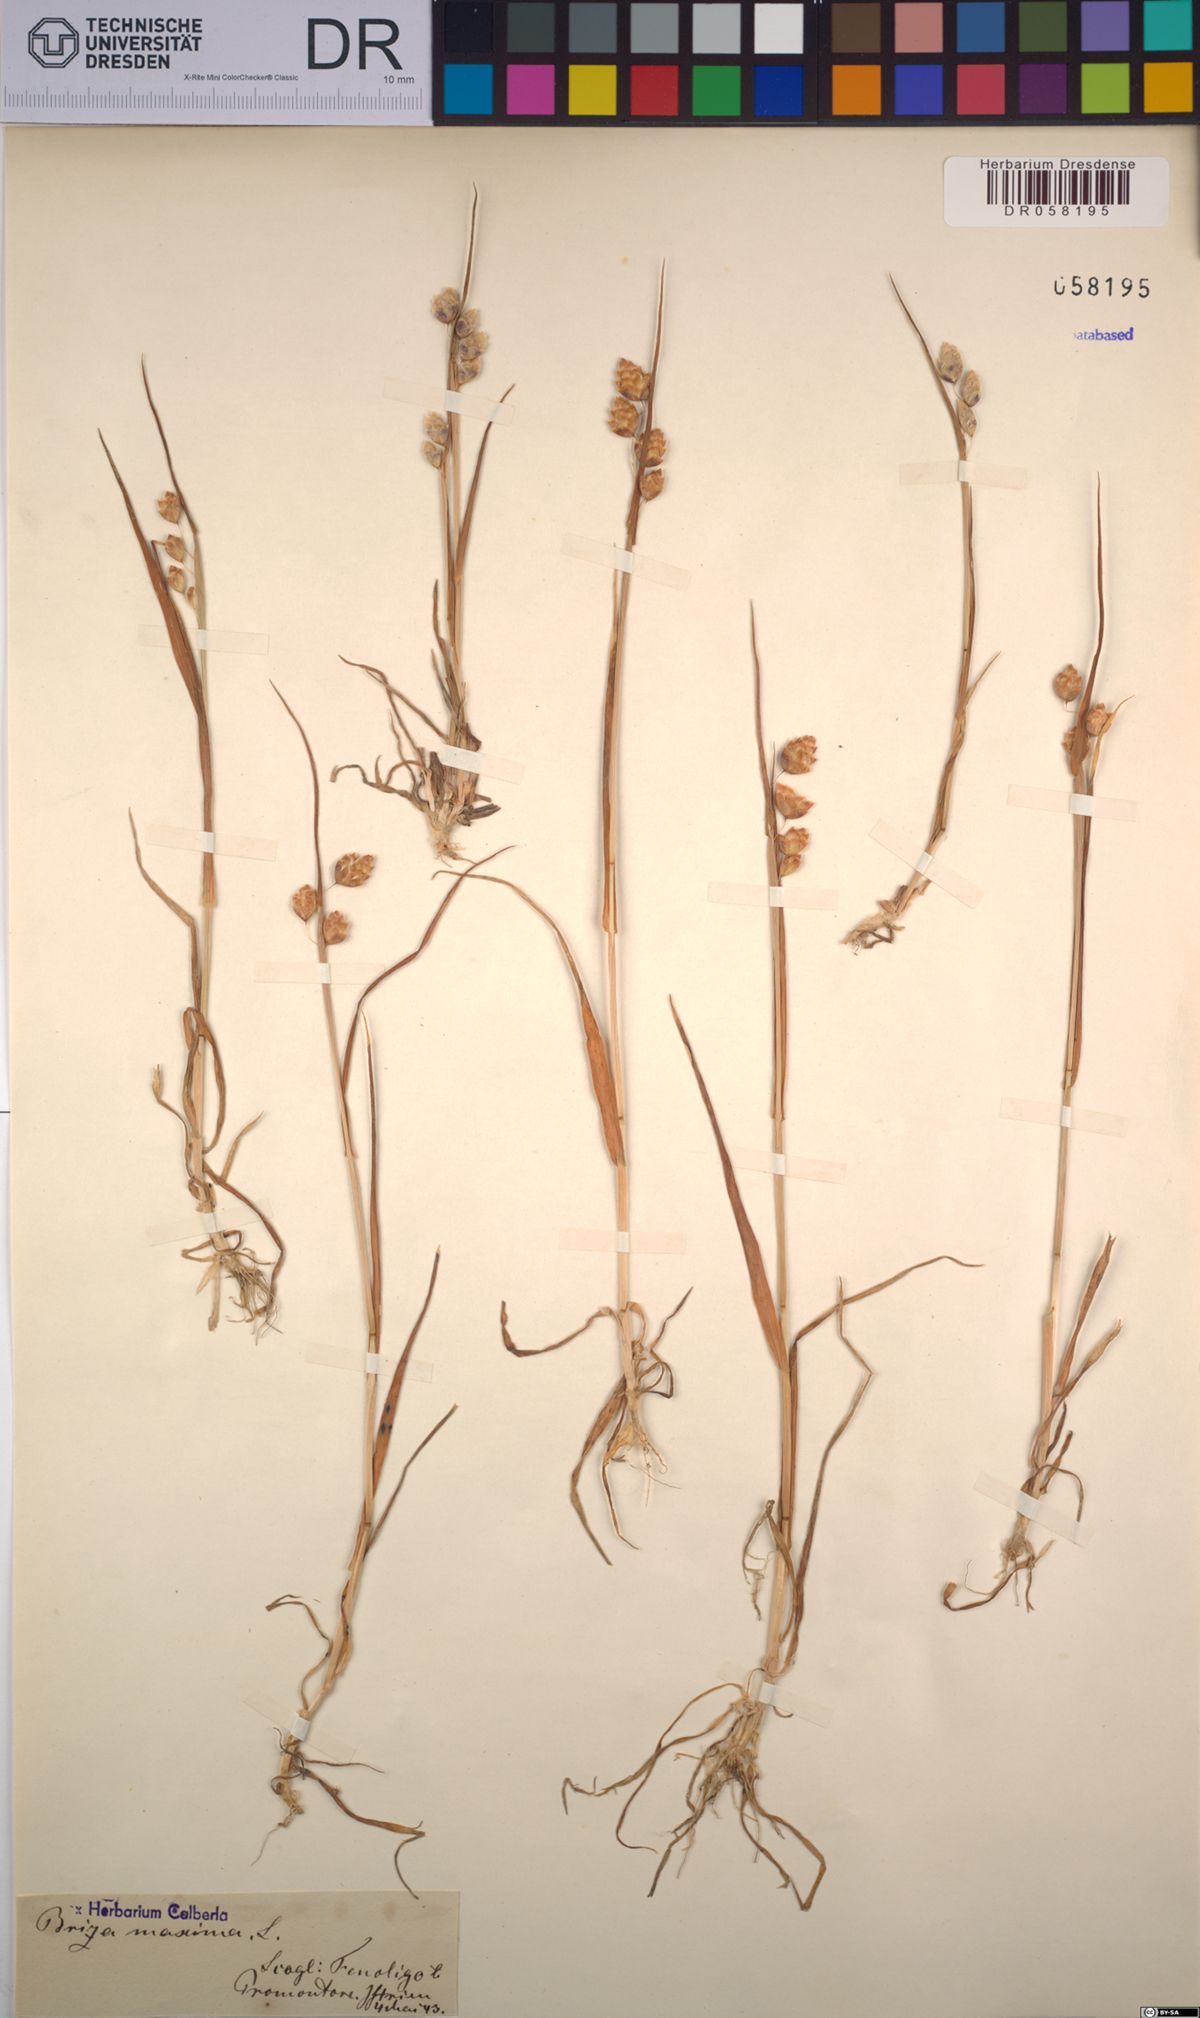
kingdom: Plantae
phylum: Tracheophyta
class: Liliopsida
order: Poales
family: Poaceae
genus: Briza
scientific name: Briza maxima
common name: Big quakinggrass
